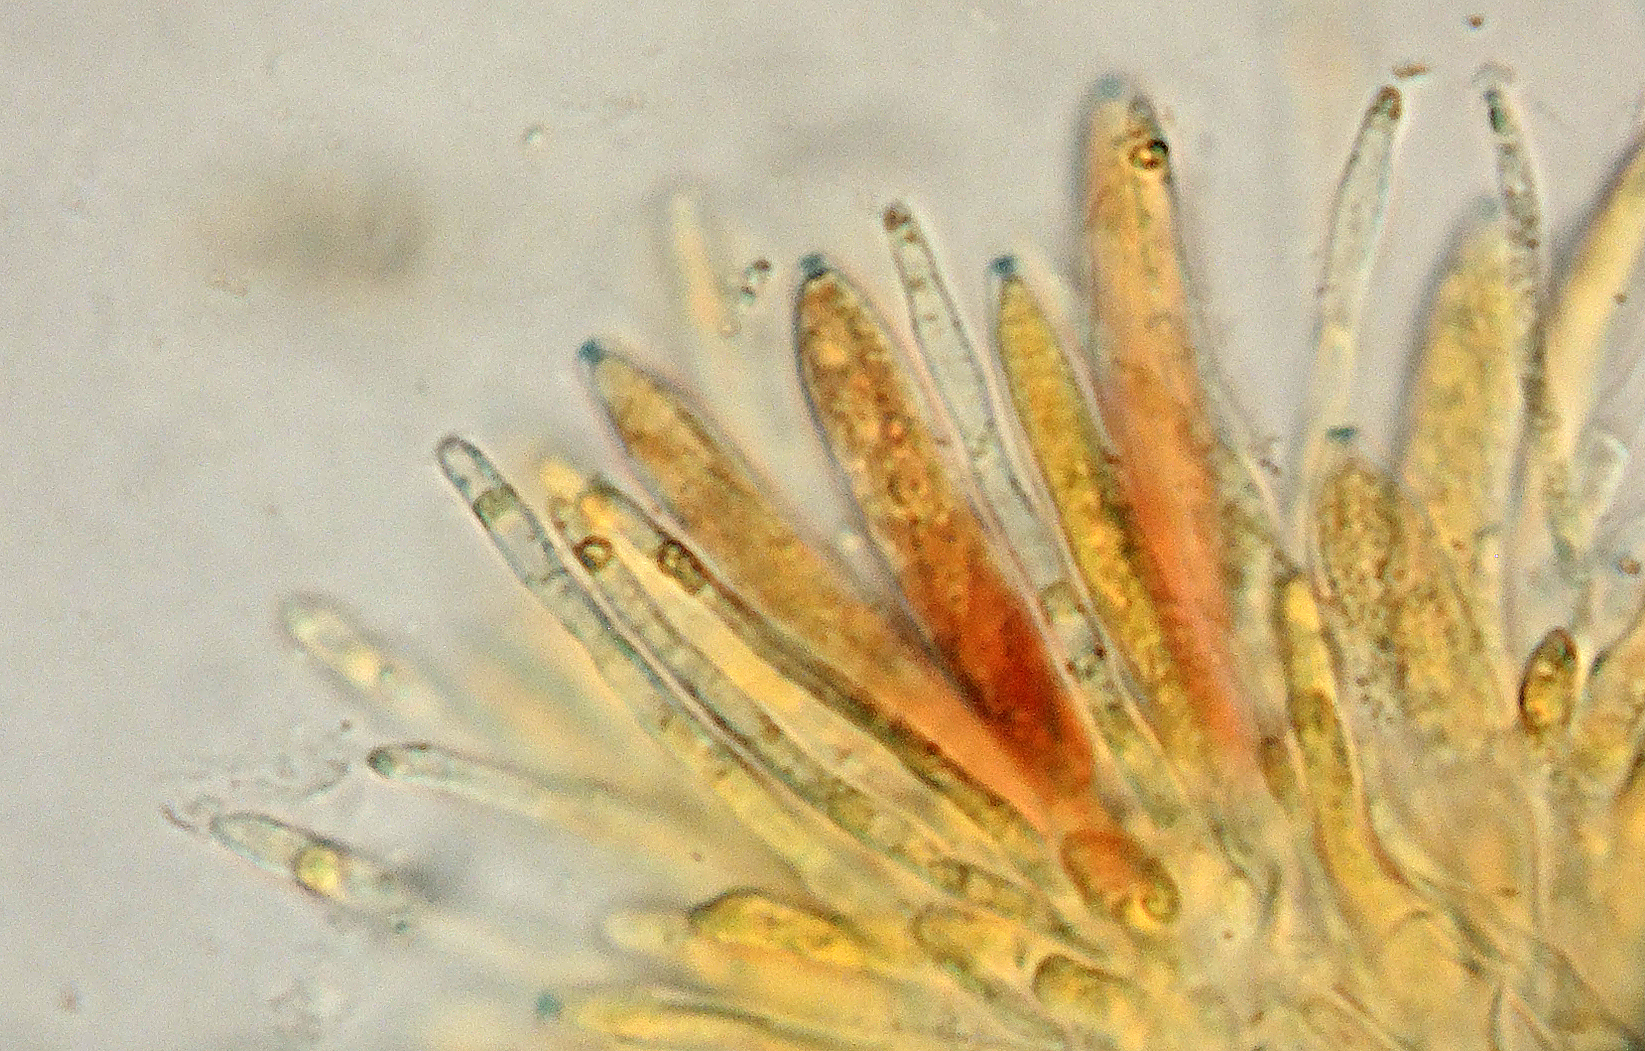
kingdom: Fungi
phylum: Ascomycota
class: Leotiomycetes
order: Helotiales
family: Ploettnerulaceae
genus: Pirottaea
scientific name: Pirottaea imbricata
